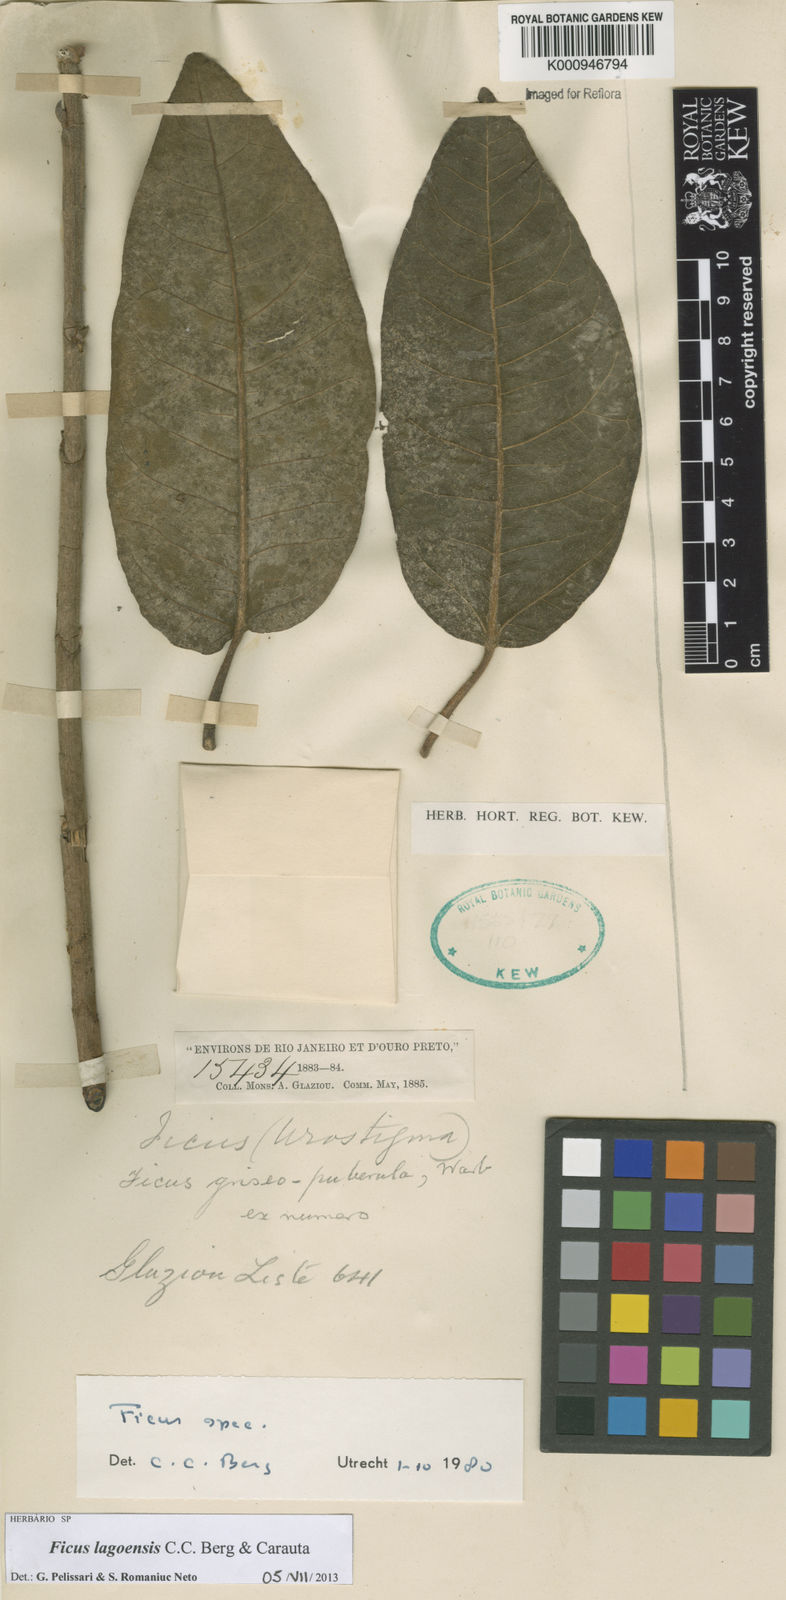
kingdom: Plantae
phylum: Tracheophyta
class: Magnoliopsida
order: Rosales
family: Moraceae
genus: Ficus
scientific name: Ficus lagoensis
